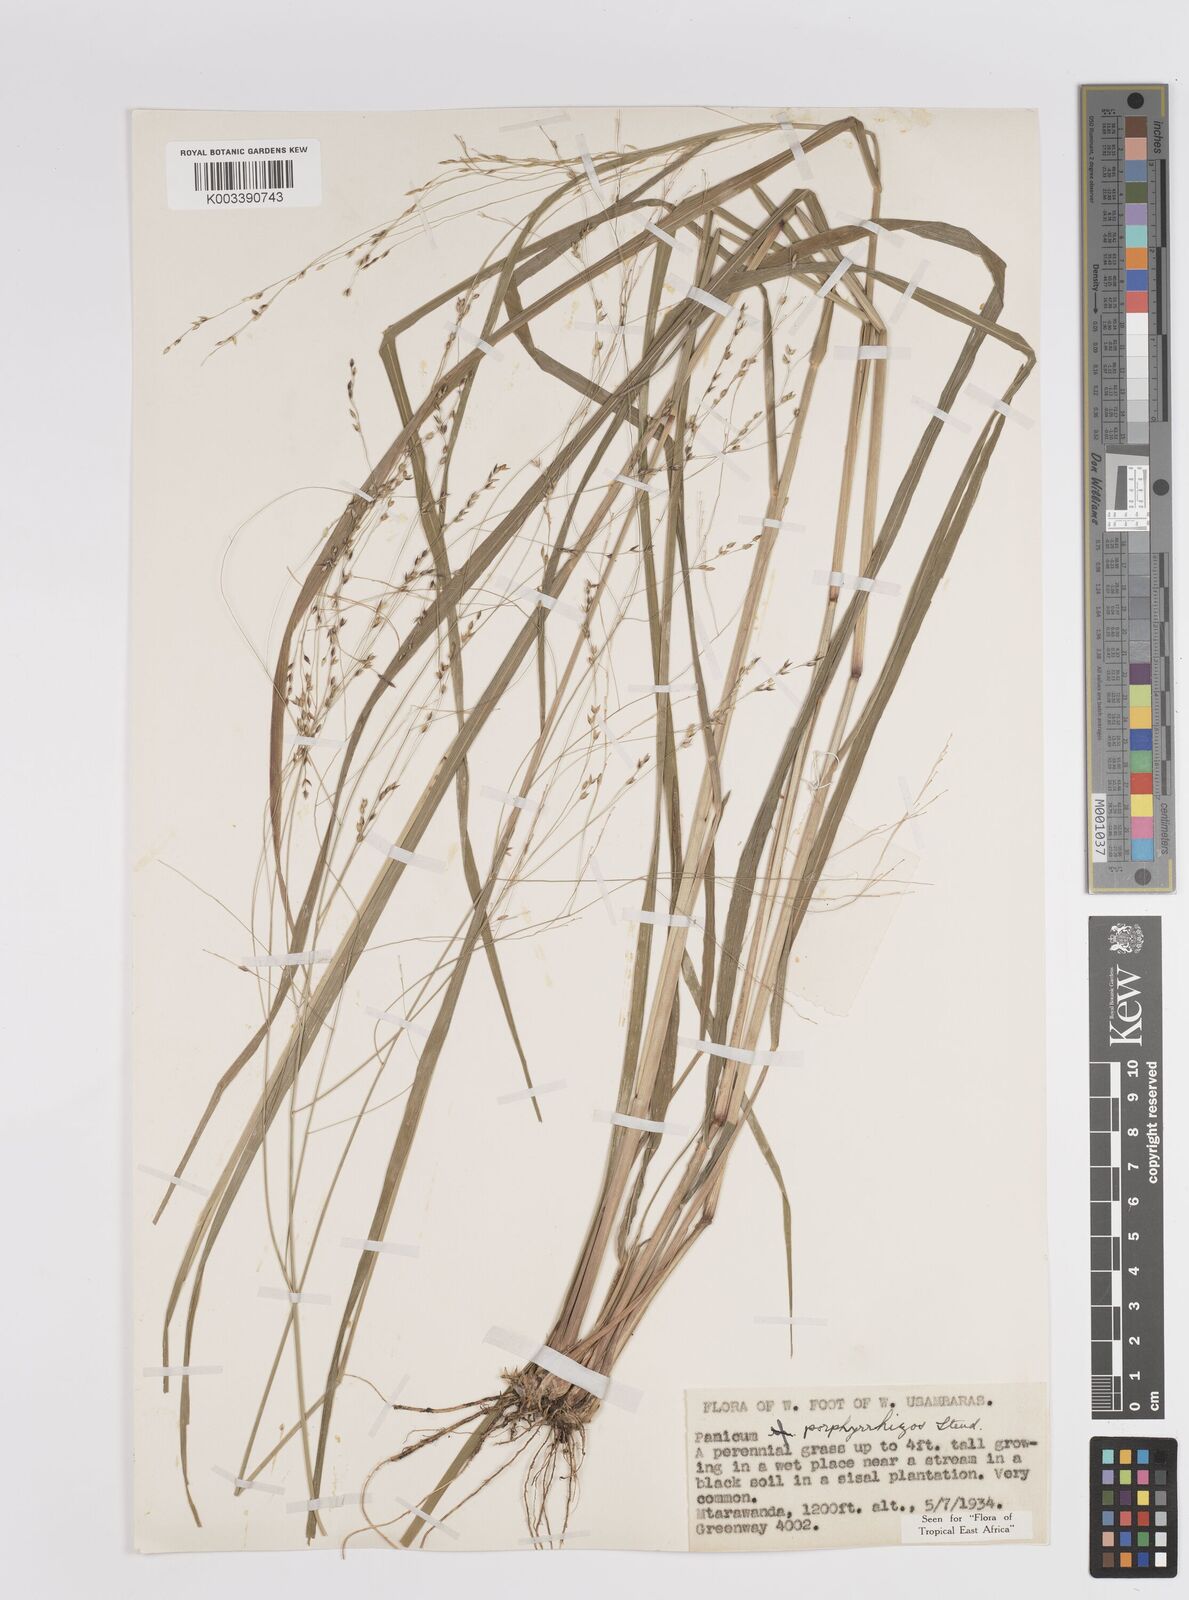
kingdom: Plantae
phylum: Tracheophyta
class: Liliopsida
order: Poales
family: Poaceae
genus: Panicum
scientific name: Panicum porphyrrhizos
